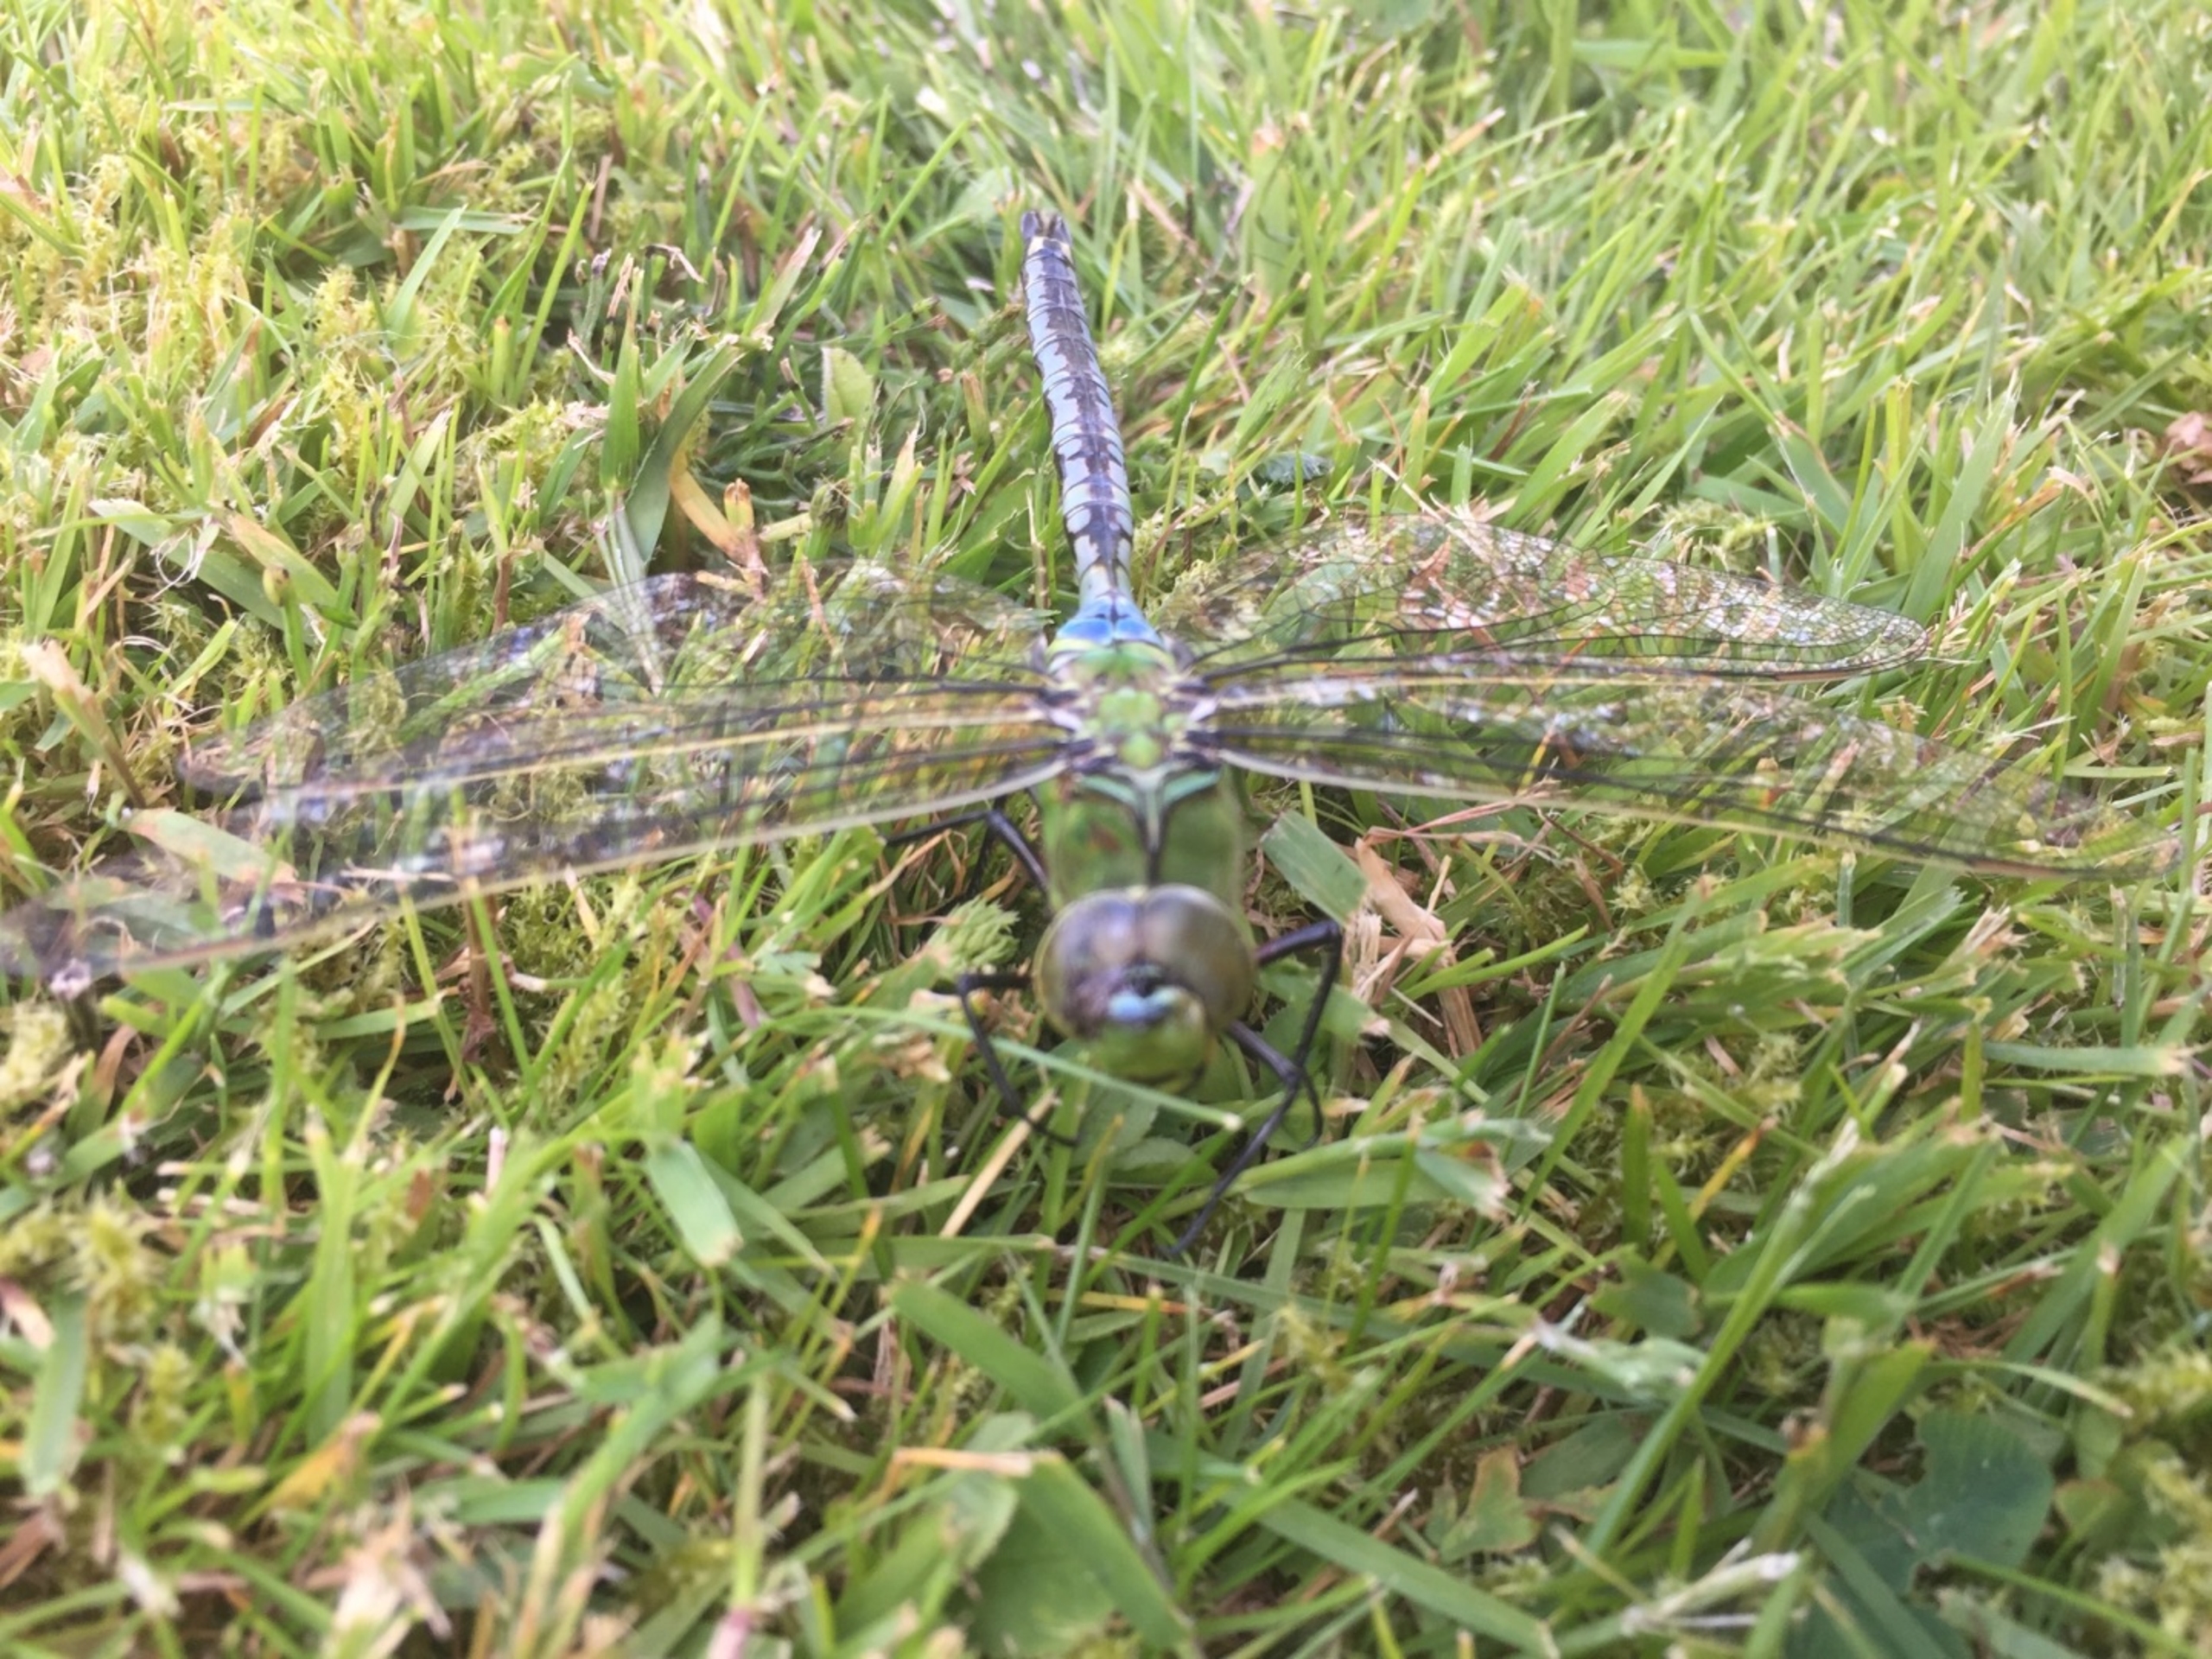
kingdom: Animalia
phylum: Arthropoda
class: Insecta
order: Odonata
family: Aeshnidae
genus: Anax
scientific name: Anax imperator
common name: Stor kejserguldsmed
